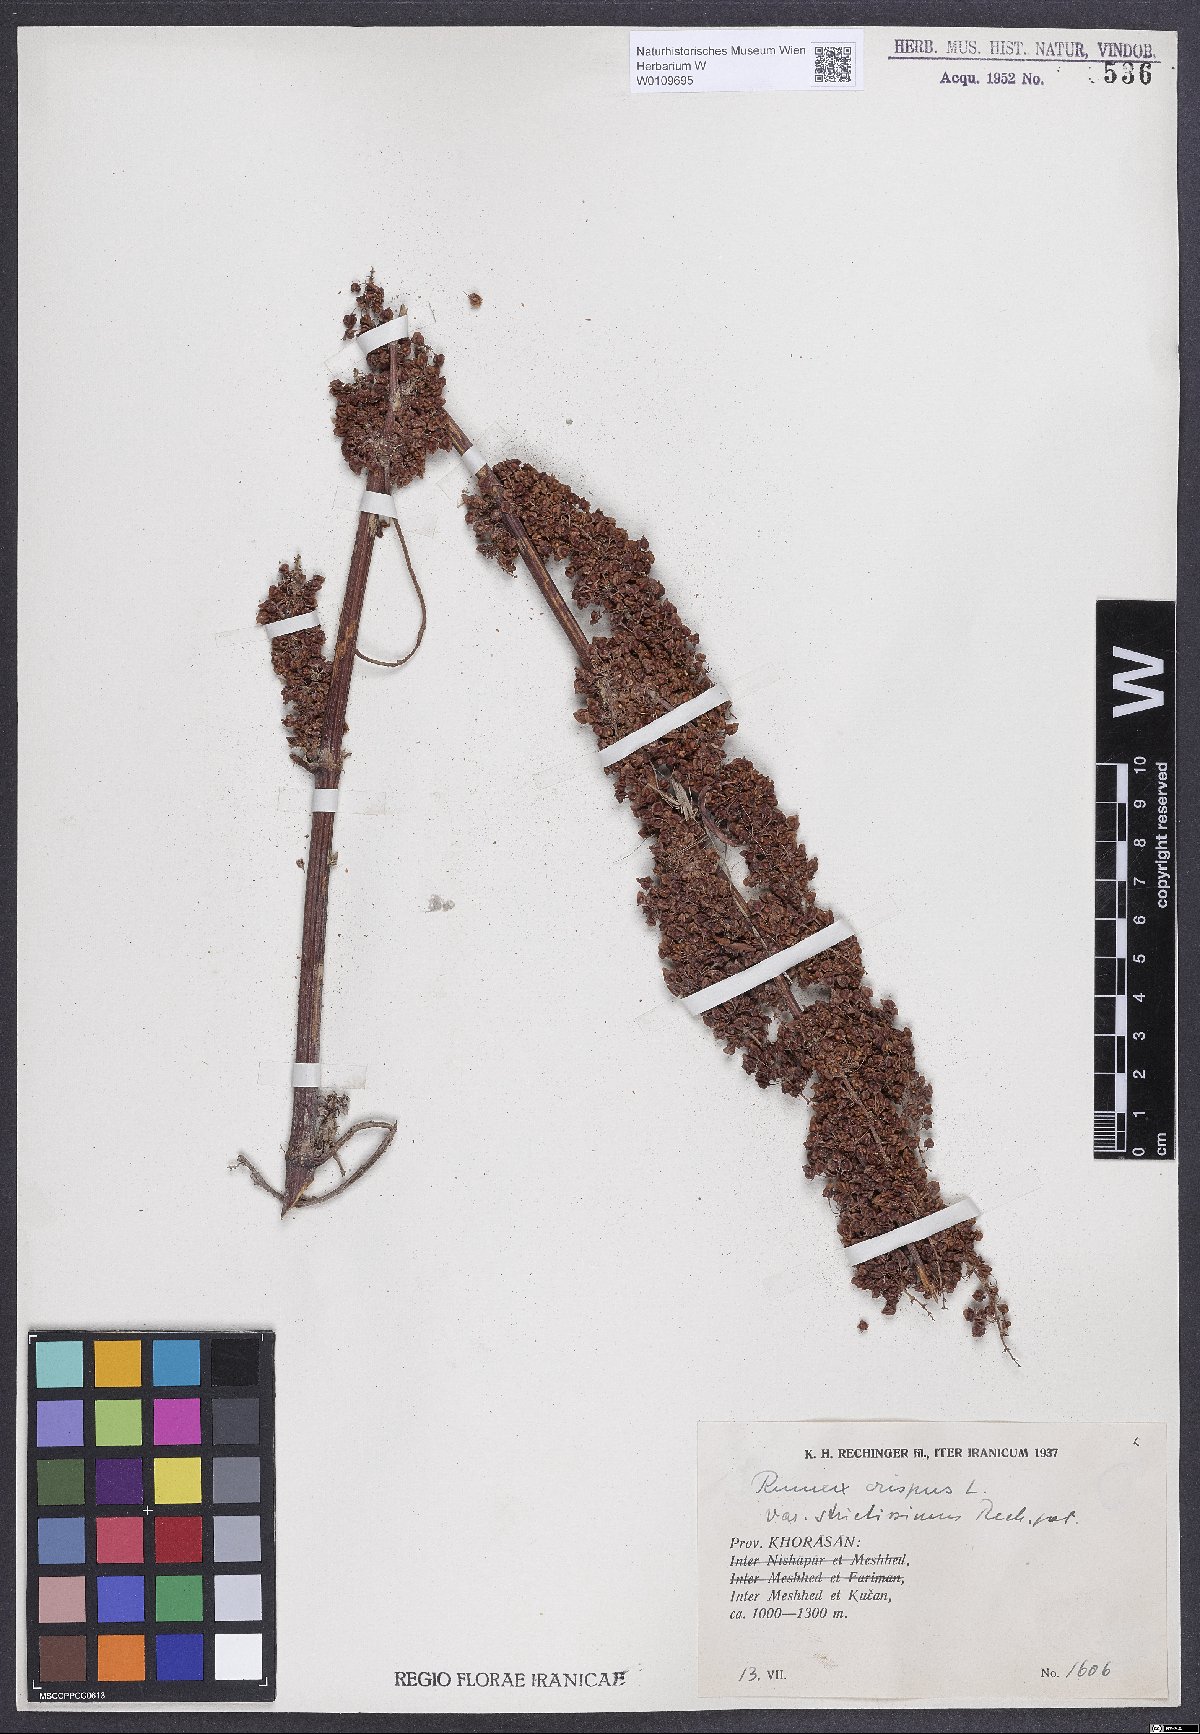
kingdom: Plantae
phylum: Tracheophyta
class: Magnoliopsida
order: Caryophyllales
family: Polygonaceae
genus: Rumex
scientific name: Rumex crispus
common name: Curled dock
